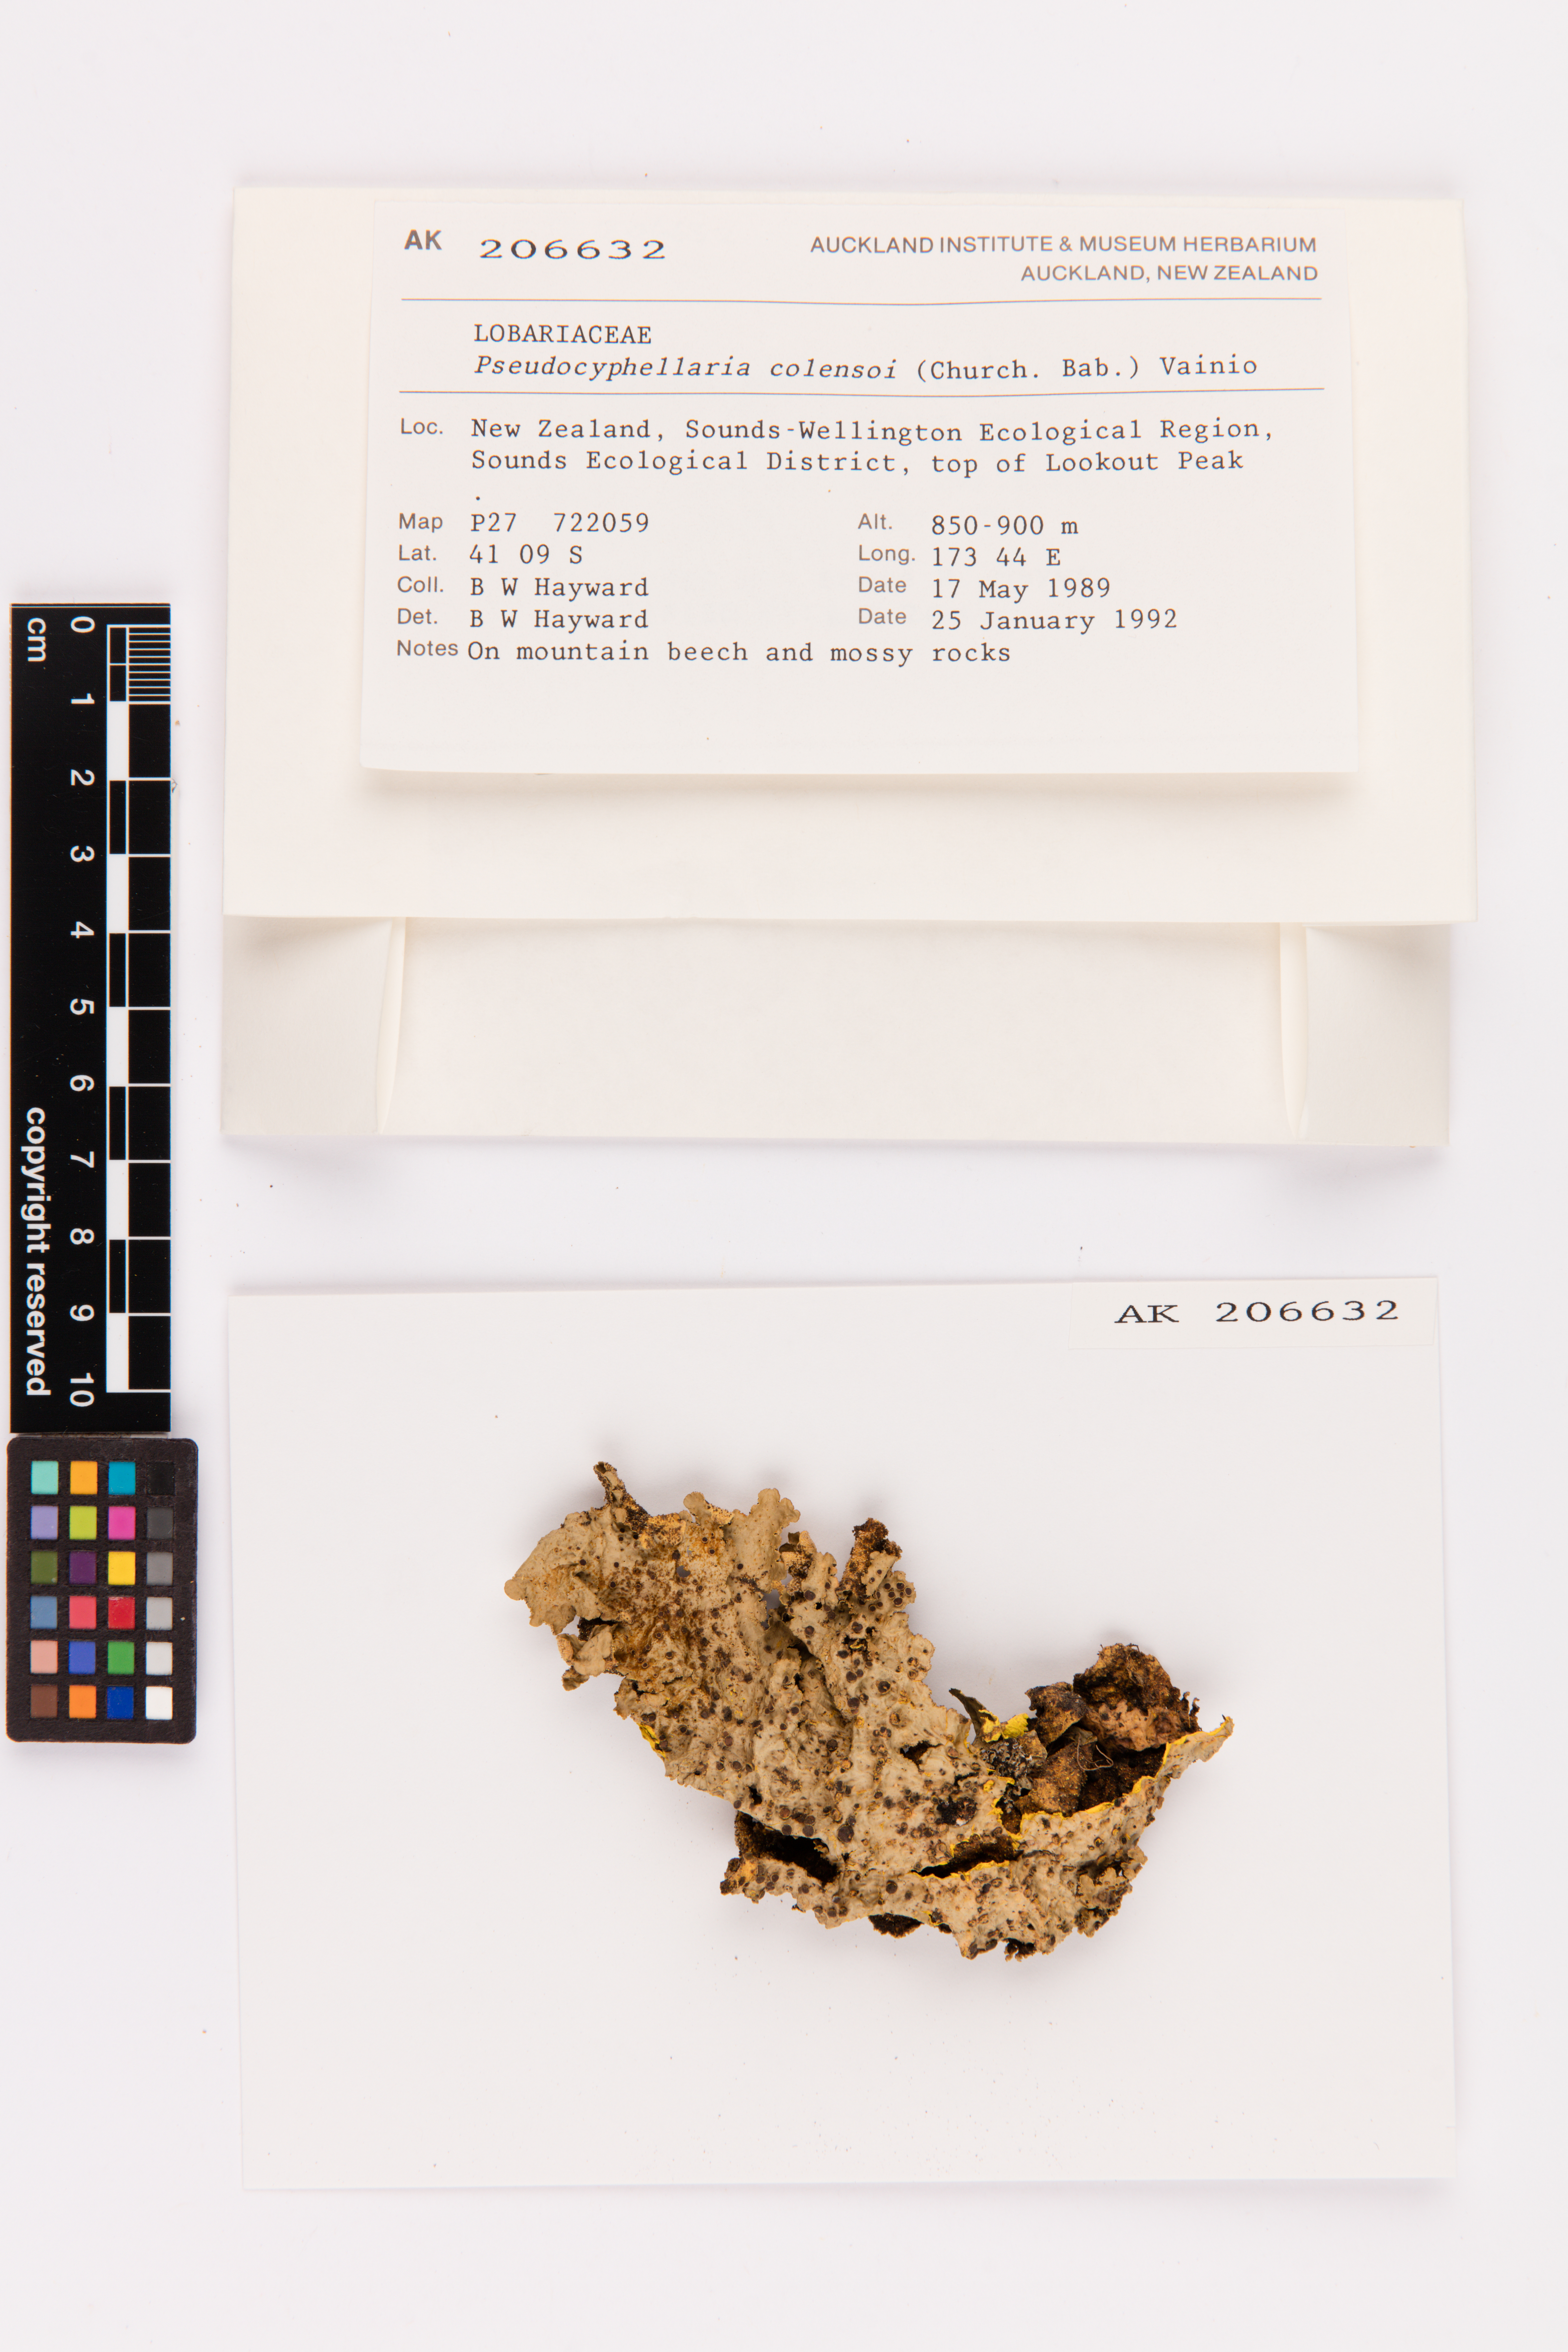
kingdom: Fungi
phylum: Ascomycota
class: Lecanoromycetes
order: Peltigerales
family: Lobariaceae
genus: Yarrumia
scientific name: Yarrumia colensoi
